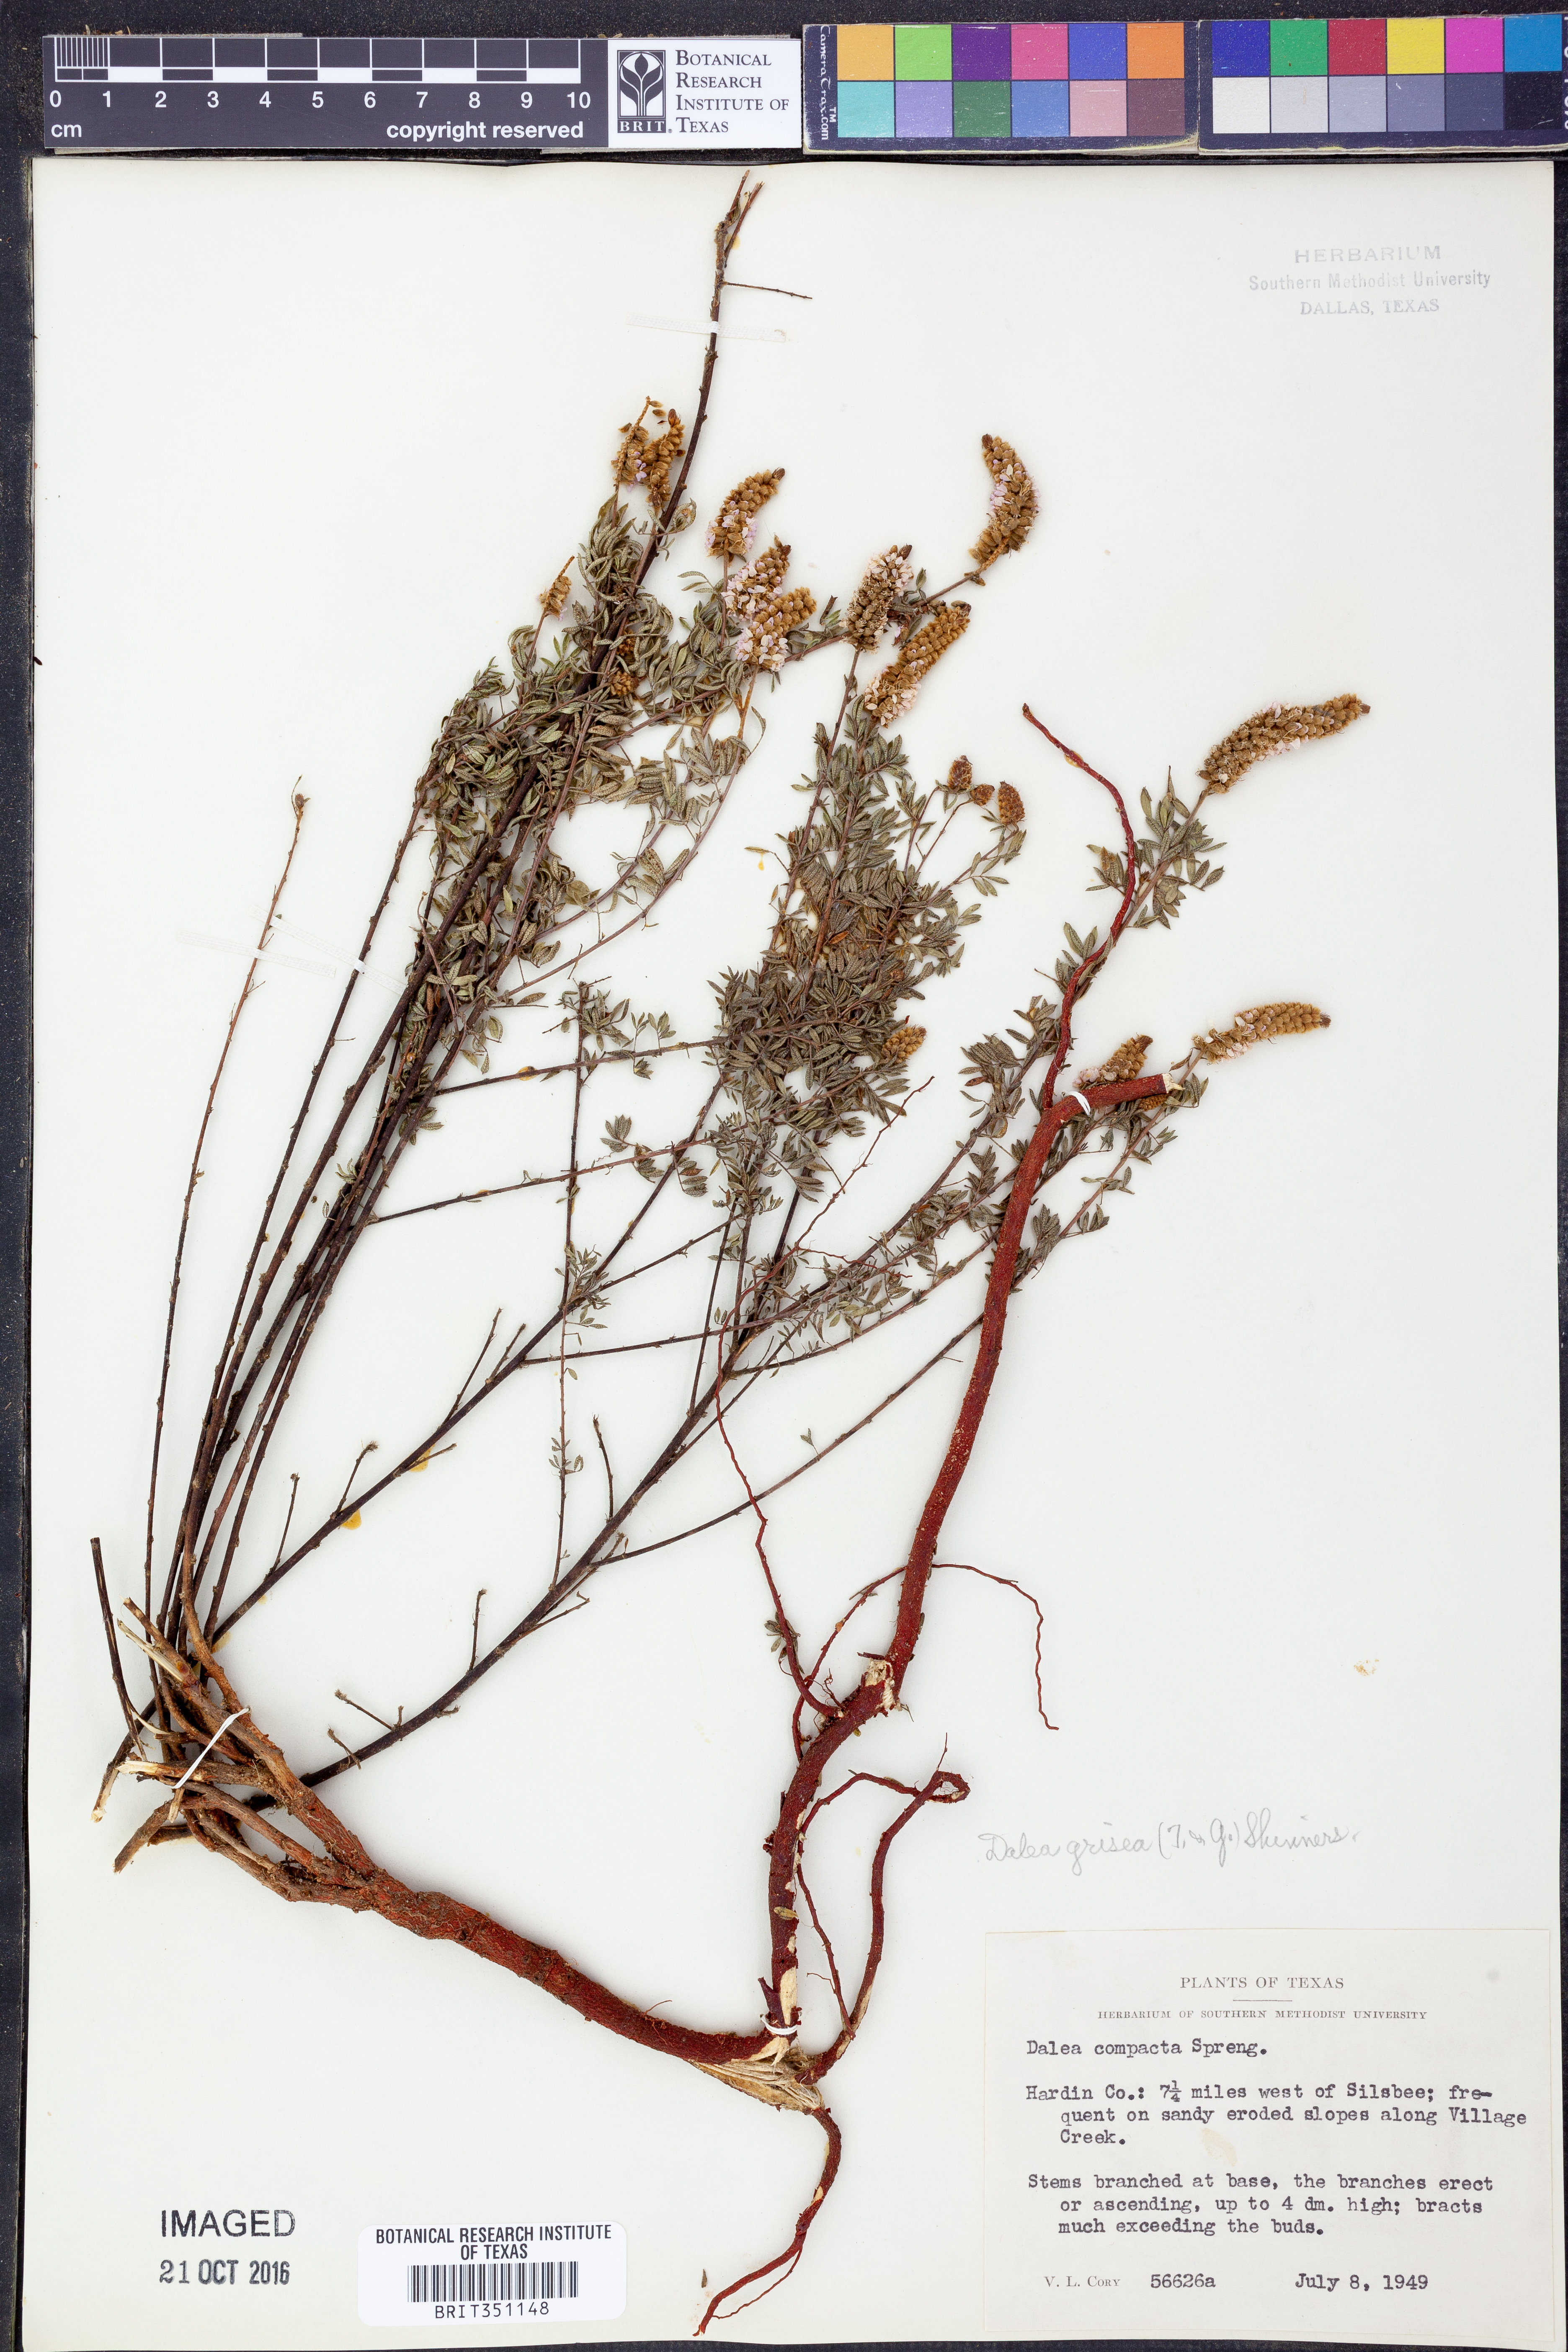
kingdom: Plantae
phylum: Tracheophyta
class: Magnoliopsida
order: Fabales
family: Fabaceae
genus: Dalea
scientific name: Dalea villosa
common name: Silky prairie-clover
